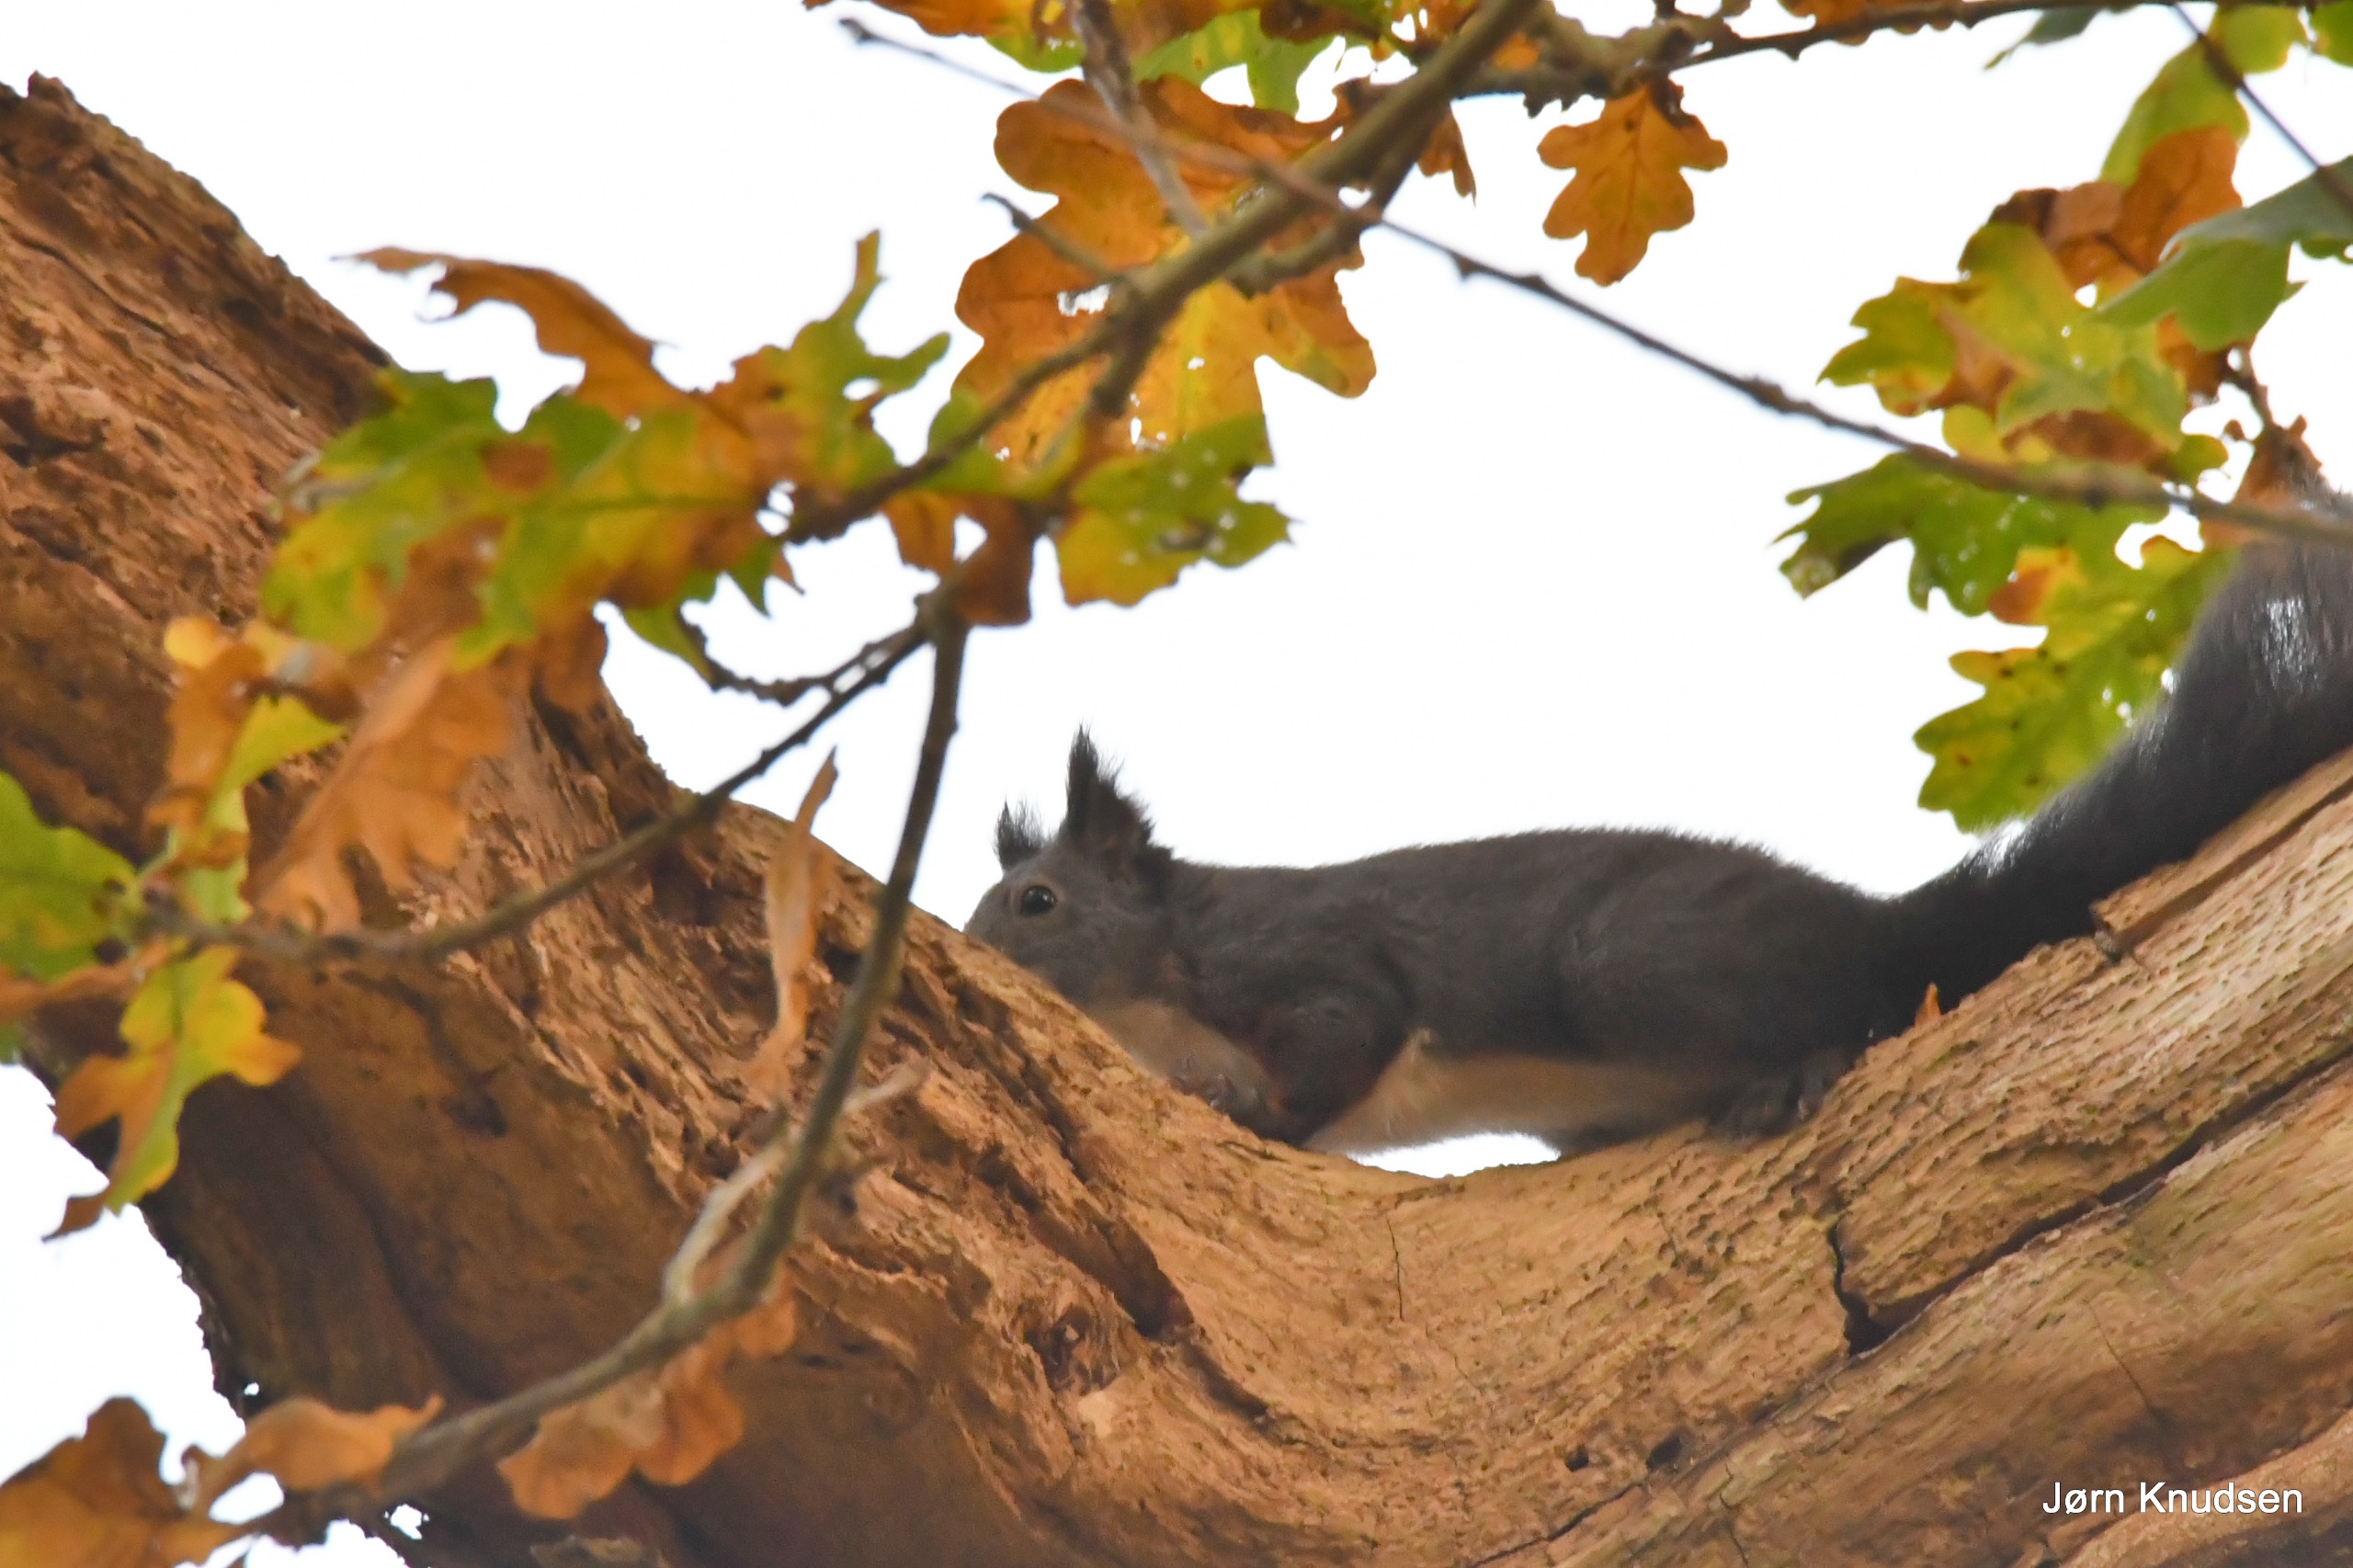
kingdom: Animalia
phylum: Chordata
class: Mammalia
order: Rodentia
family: Sciuridae
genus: Sciurus
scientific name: Sciurus vulgaris
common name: Egern
